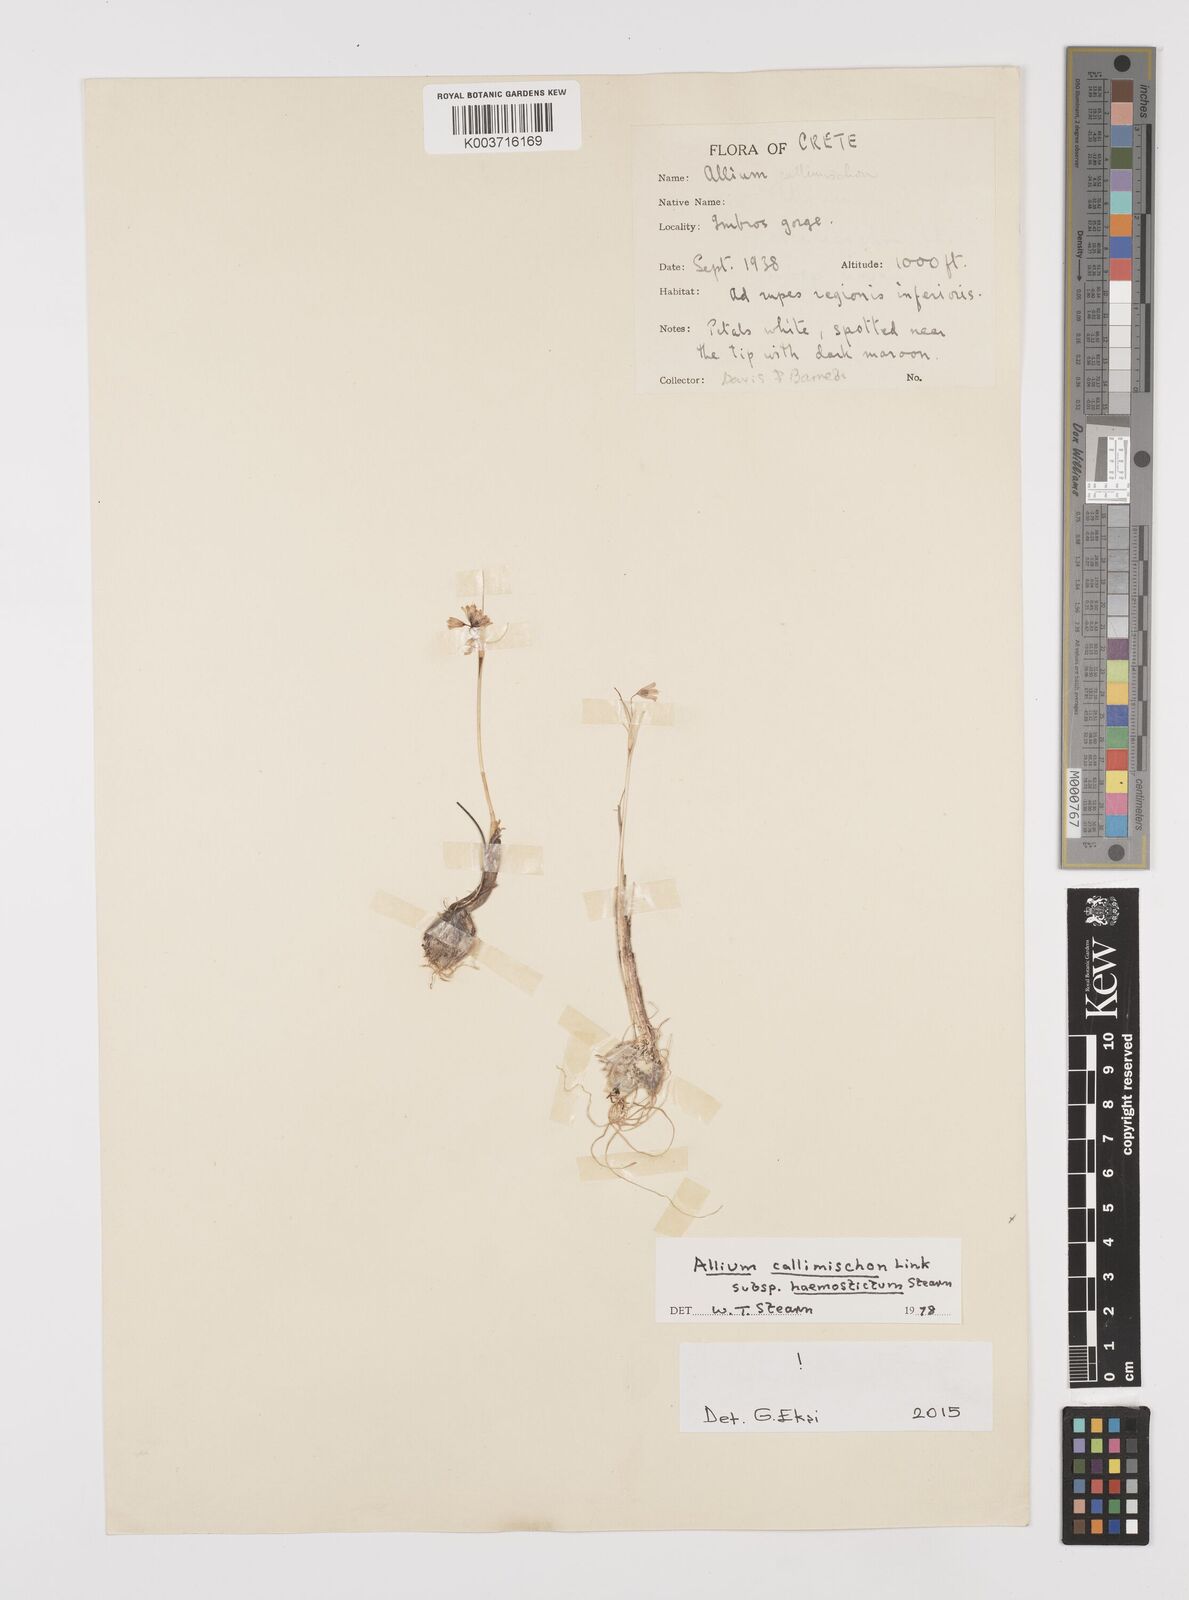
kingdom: Plantae
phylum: Tracheophyta
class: Liliopsida
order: Asparagales
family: Amaryllidaceae
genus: Allium
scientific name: Allium callimischon
